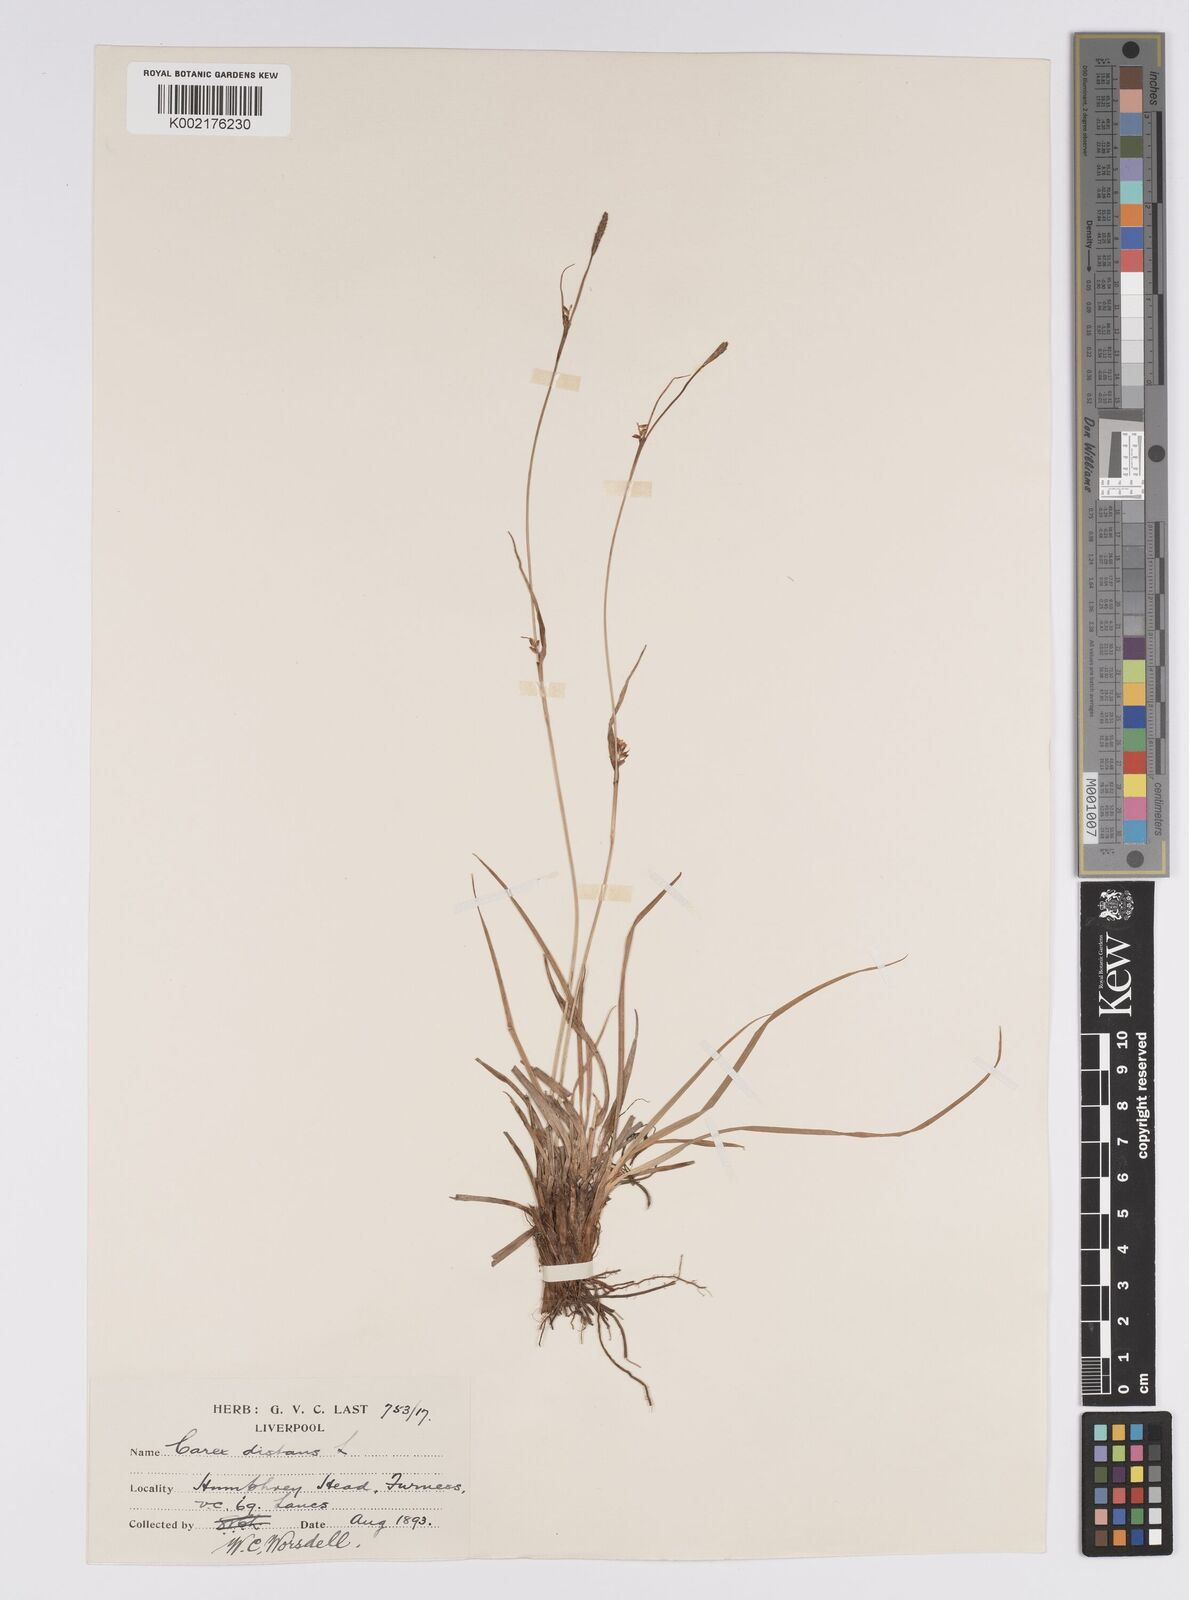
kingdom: Plantae
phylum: Tracheophyta
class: Liliopsida
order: Poales
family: Cyperaceae
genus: Carex
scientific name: Carex distans
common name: Distant sedge
